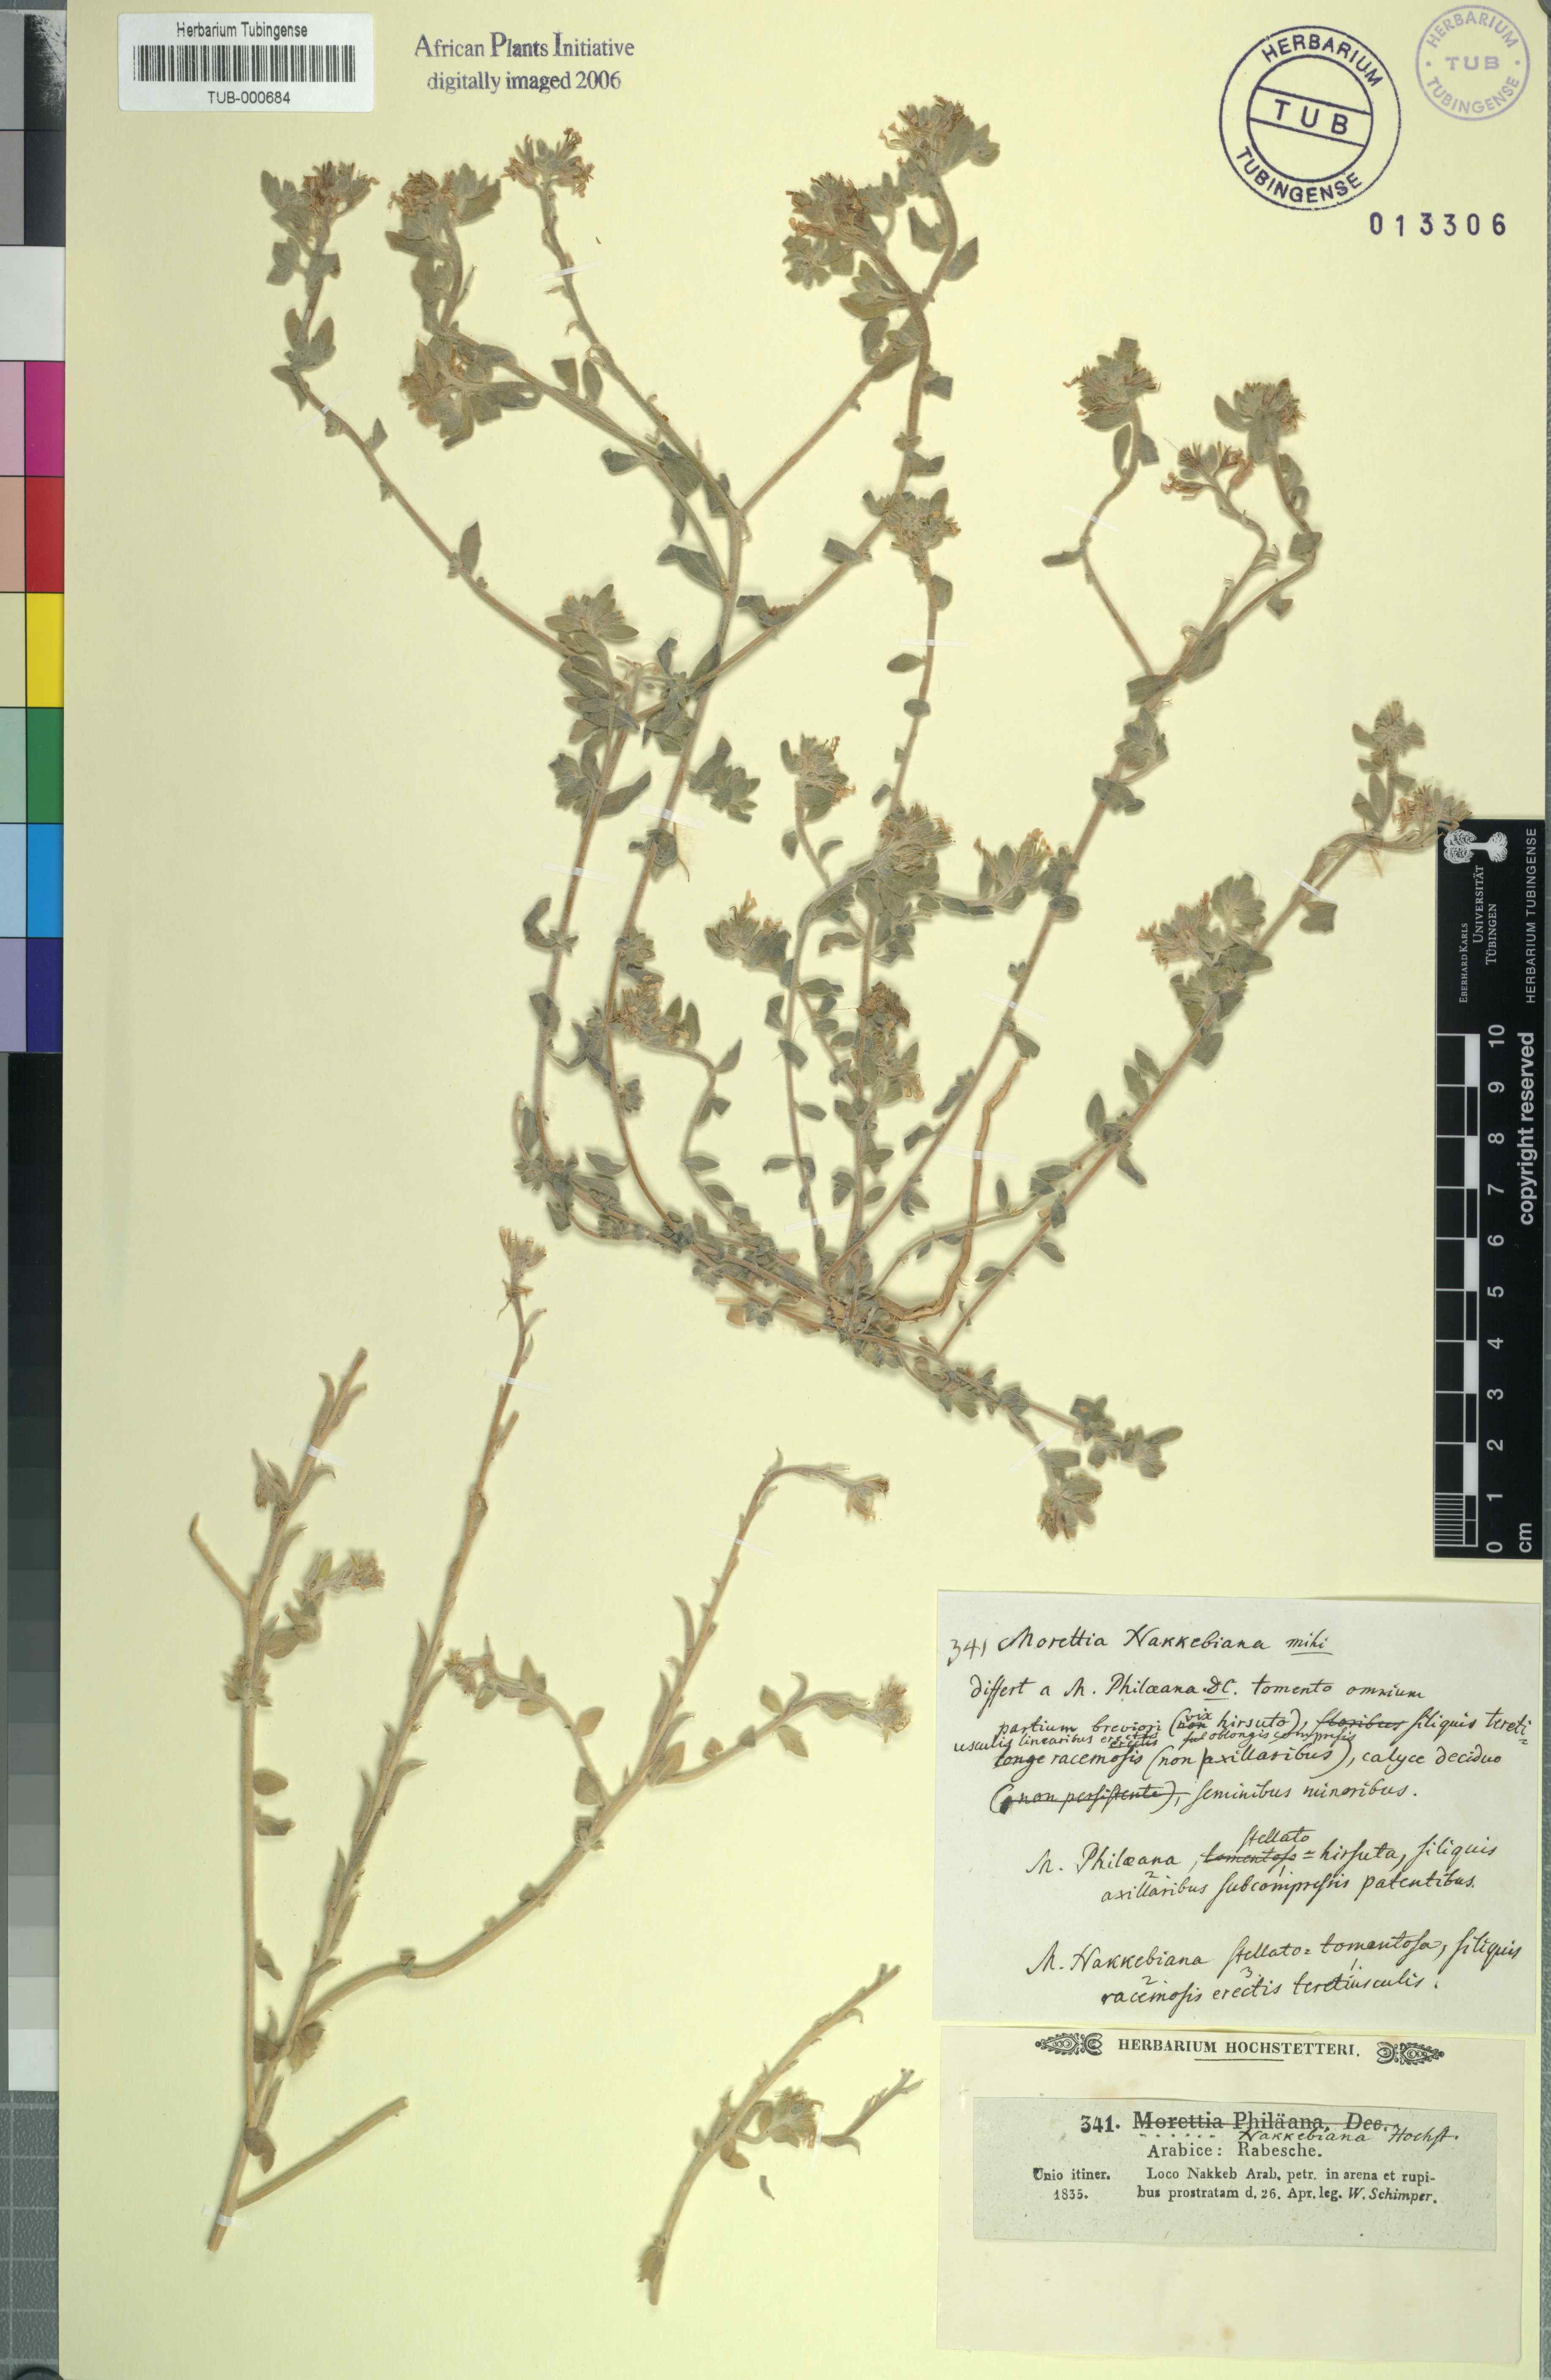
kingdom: Plantae
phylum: Tracheophyta
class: Magnoliopsida
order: Brassicales
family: Brassicaceae
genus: Morettia
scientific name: Morettia nakkebiana
